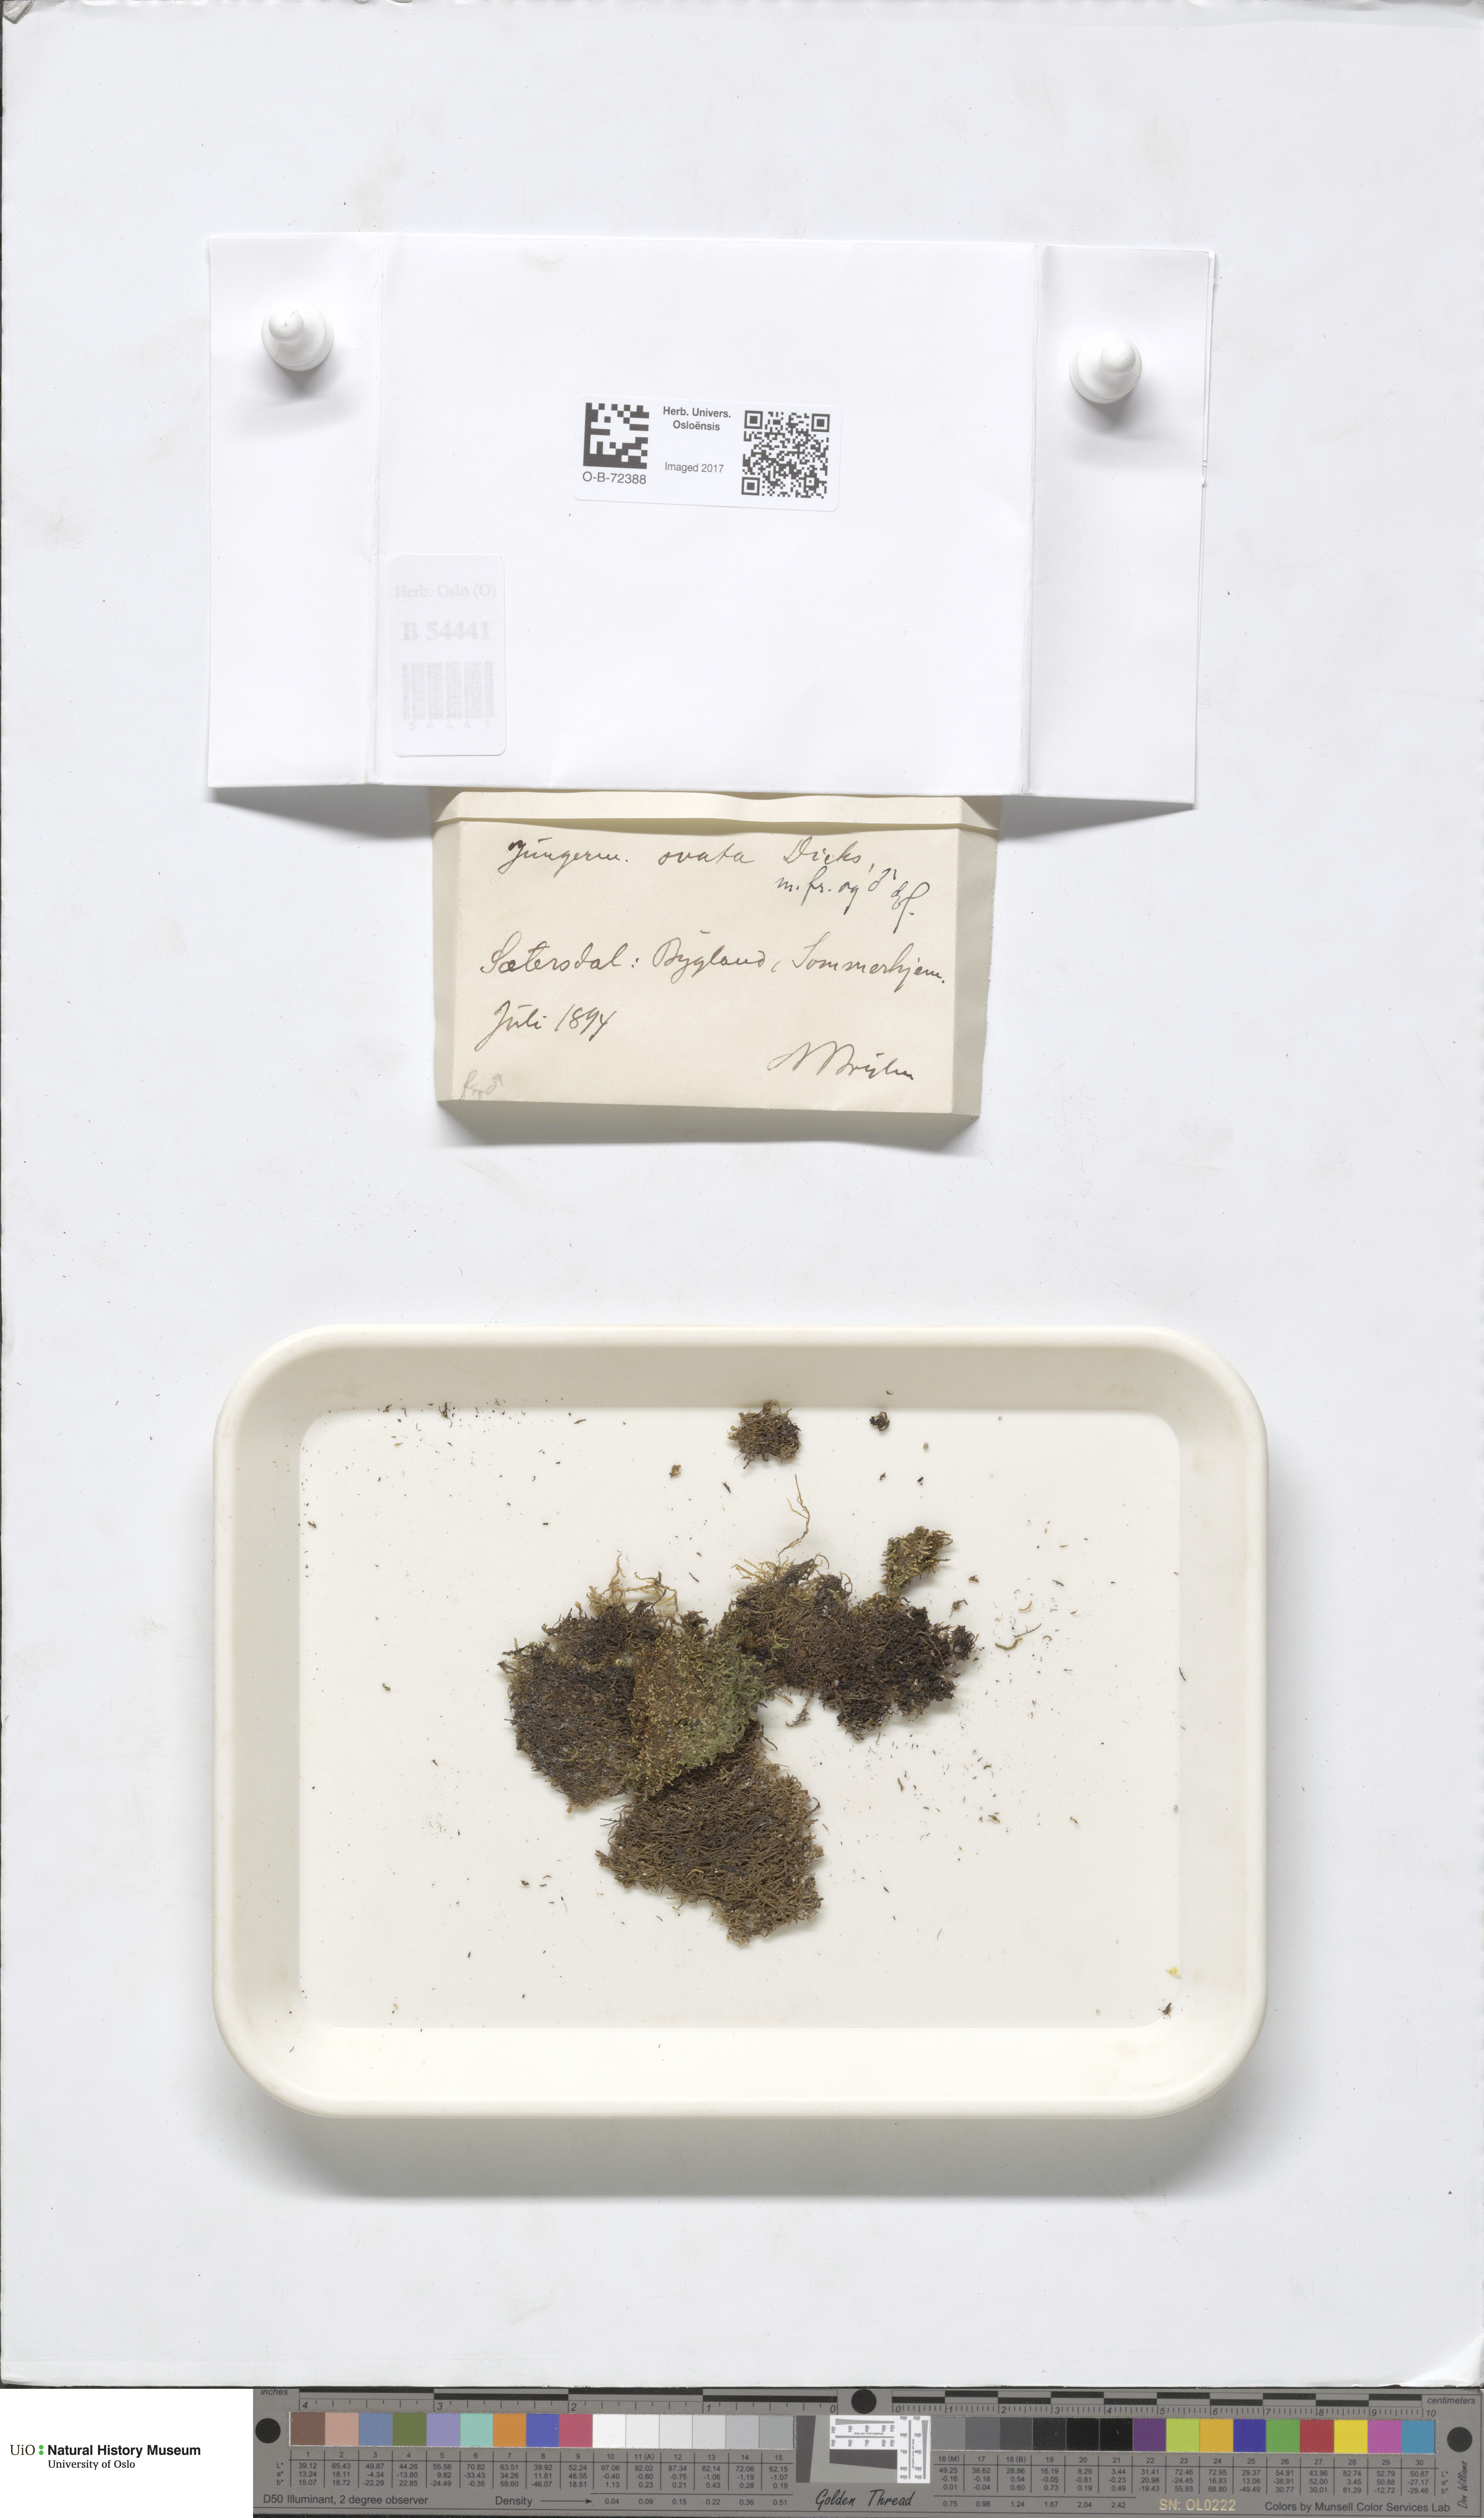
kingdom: Plantae
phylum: Marchantiophyta
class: Jungermanniopsida
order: Jungermanniales
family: Scapaniaceae
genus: Douinia
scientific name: Douinia ovata
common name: Waxy earwort
